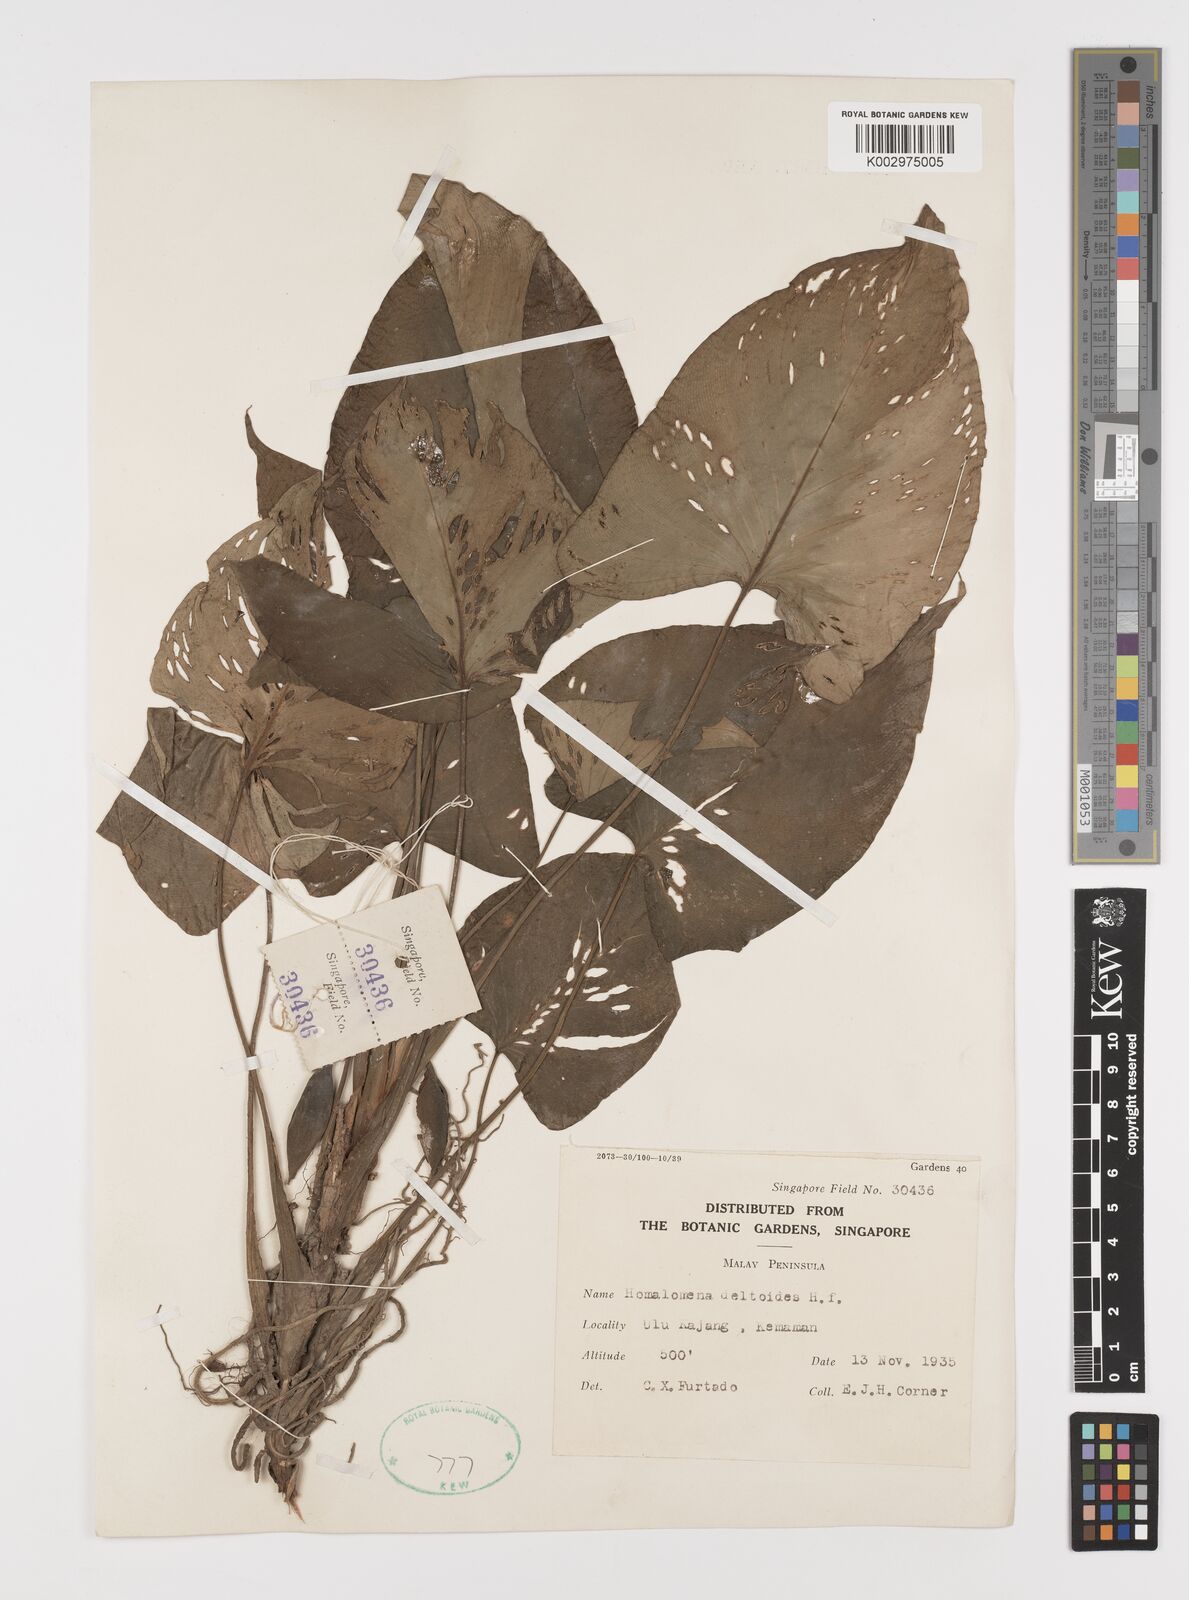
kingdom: Plantae
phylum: Tracheophyta
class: Liliopsida
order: Alismatales
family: Araceae
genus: Homalomena
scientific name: Homalomena griffithii
